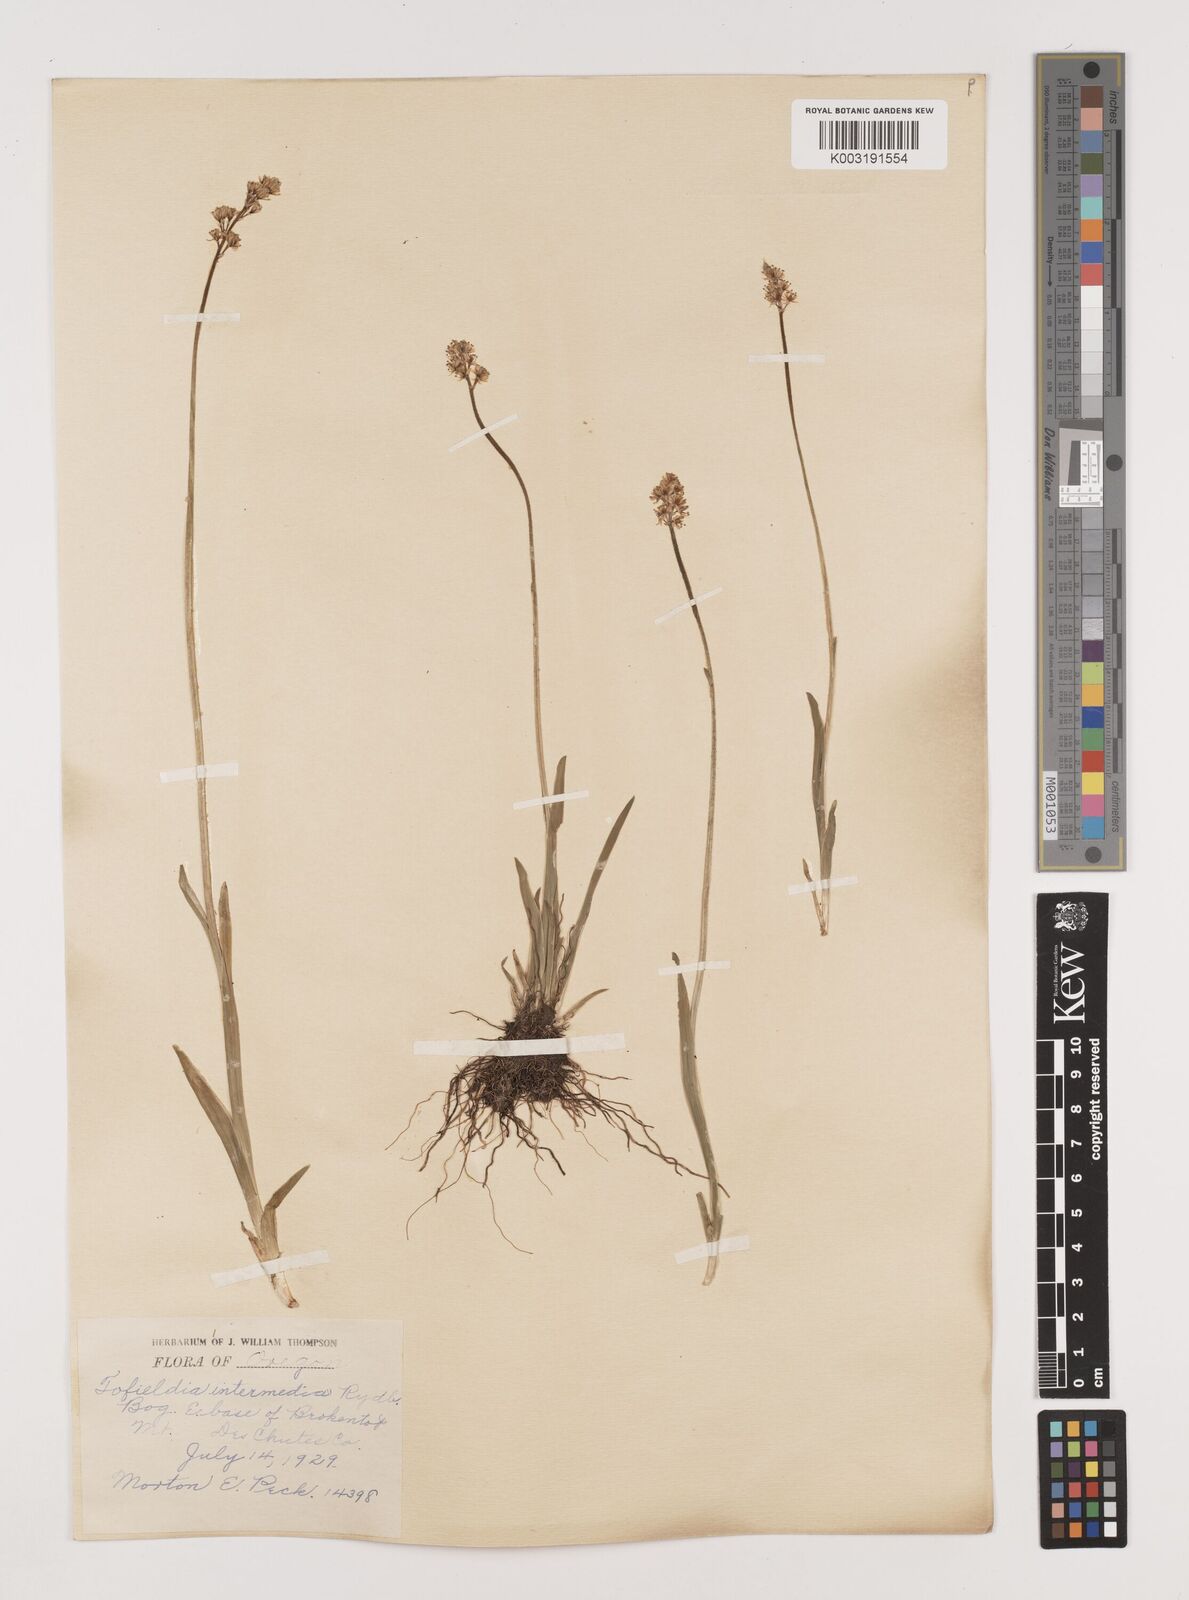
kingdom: Plantae
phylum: Tracheophyta
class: Liliopsida
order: Alismatales
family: Tofieldiaceae
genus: Triantha
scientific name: Triantha occidentalis
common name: Western false asphodel
